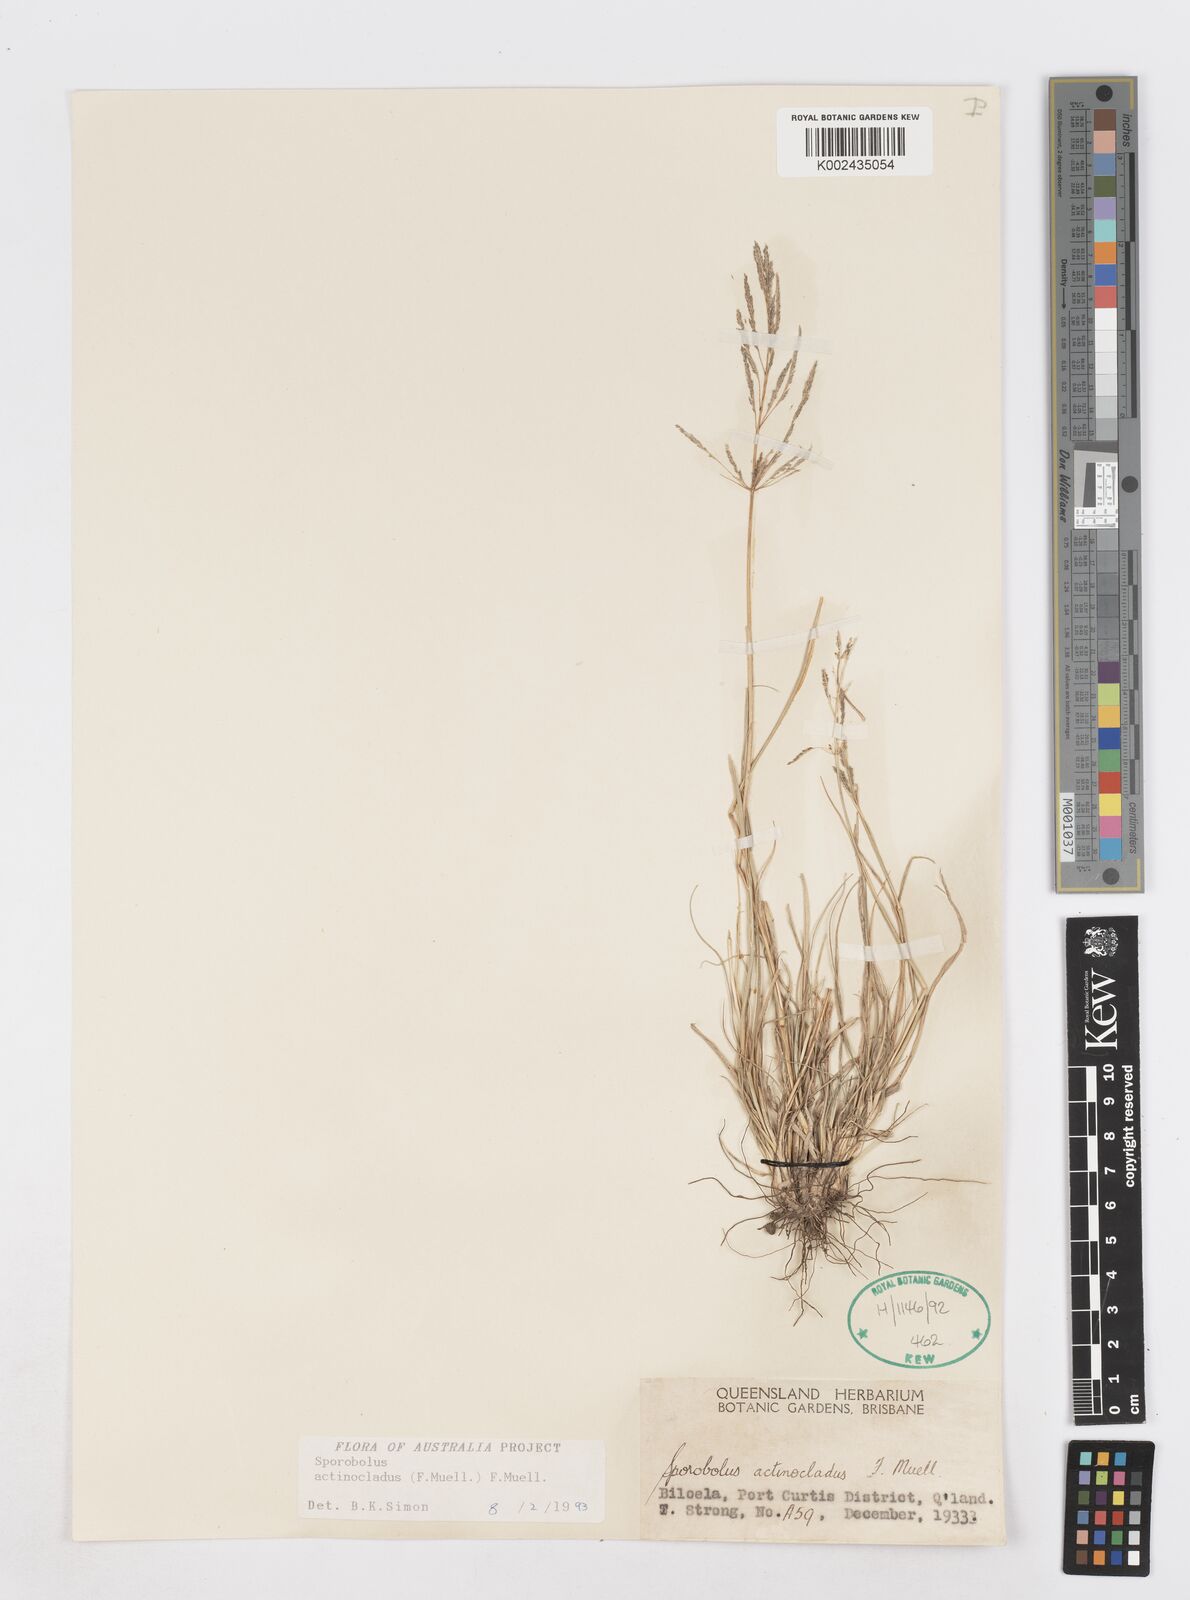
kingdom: Plantae
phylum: Tracheophyta
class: Liliopsida
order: Poales
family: Poaceae
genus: Sporobolus
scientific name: Sporobolus actinocladus
